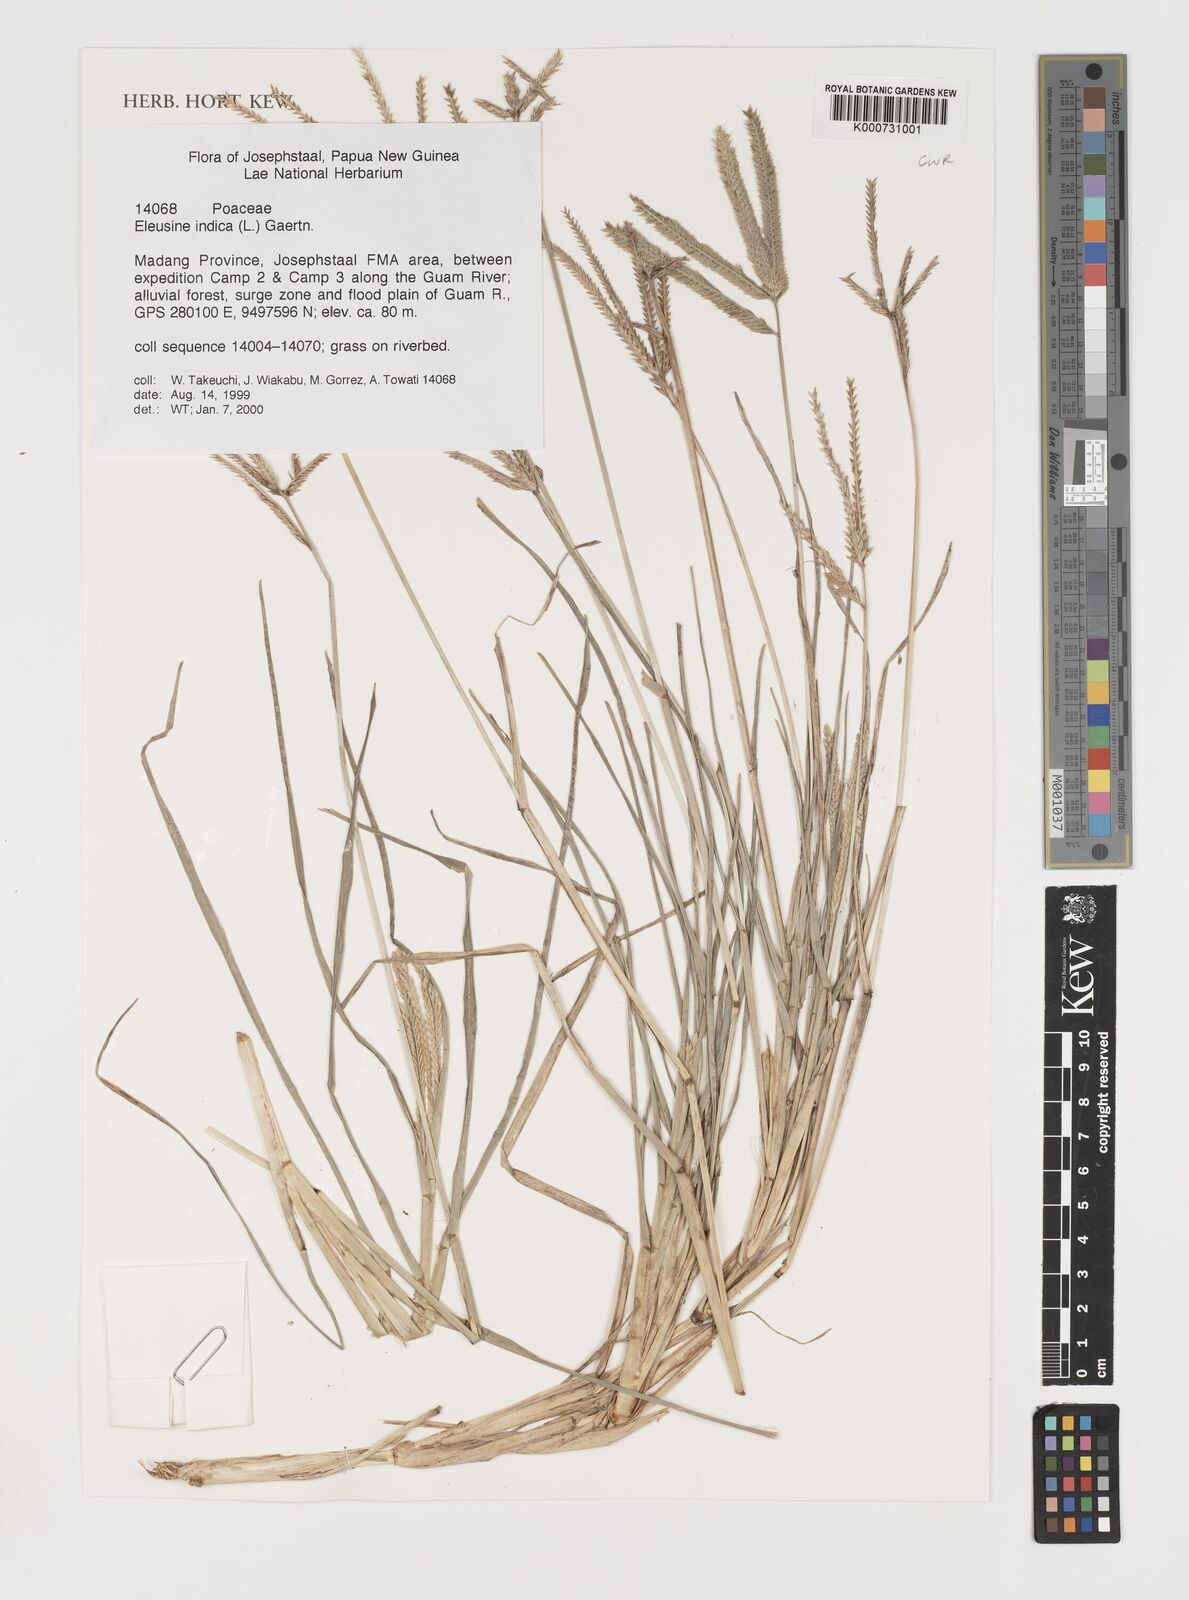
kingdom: Plantae
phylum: Tracheophyta
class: Liliopsida
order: Poales
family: Poaceae
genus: Eleusine
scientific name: Eleusine indica
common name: Yard-grass
